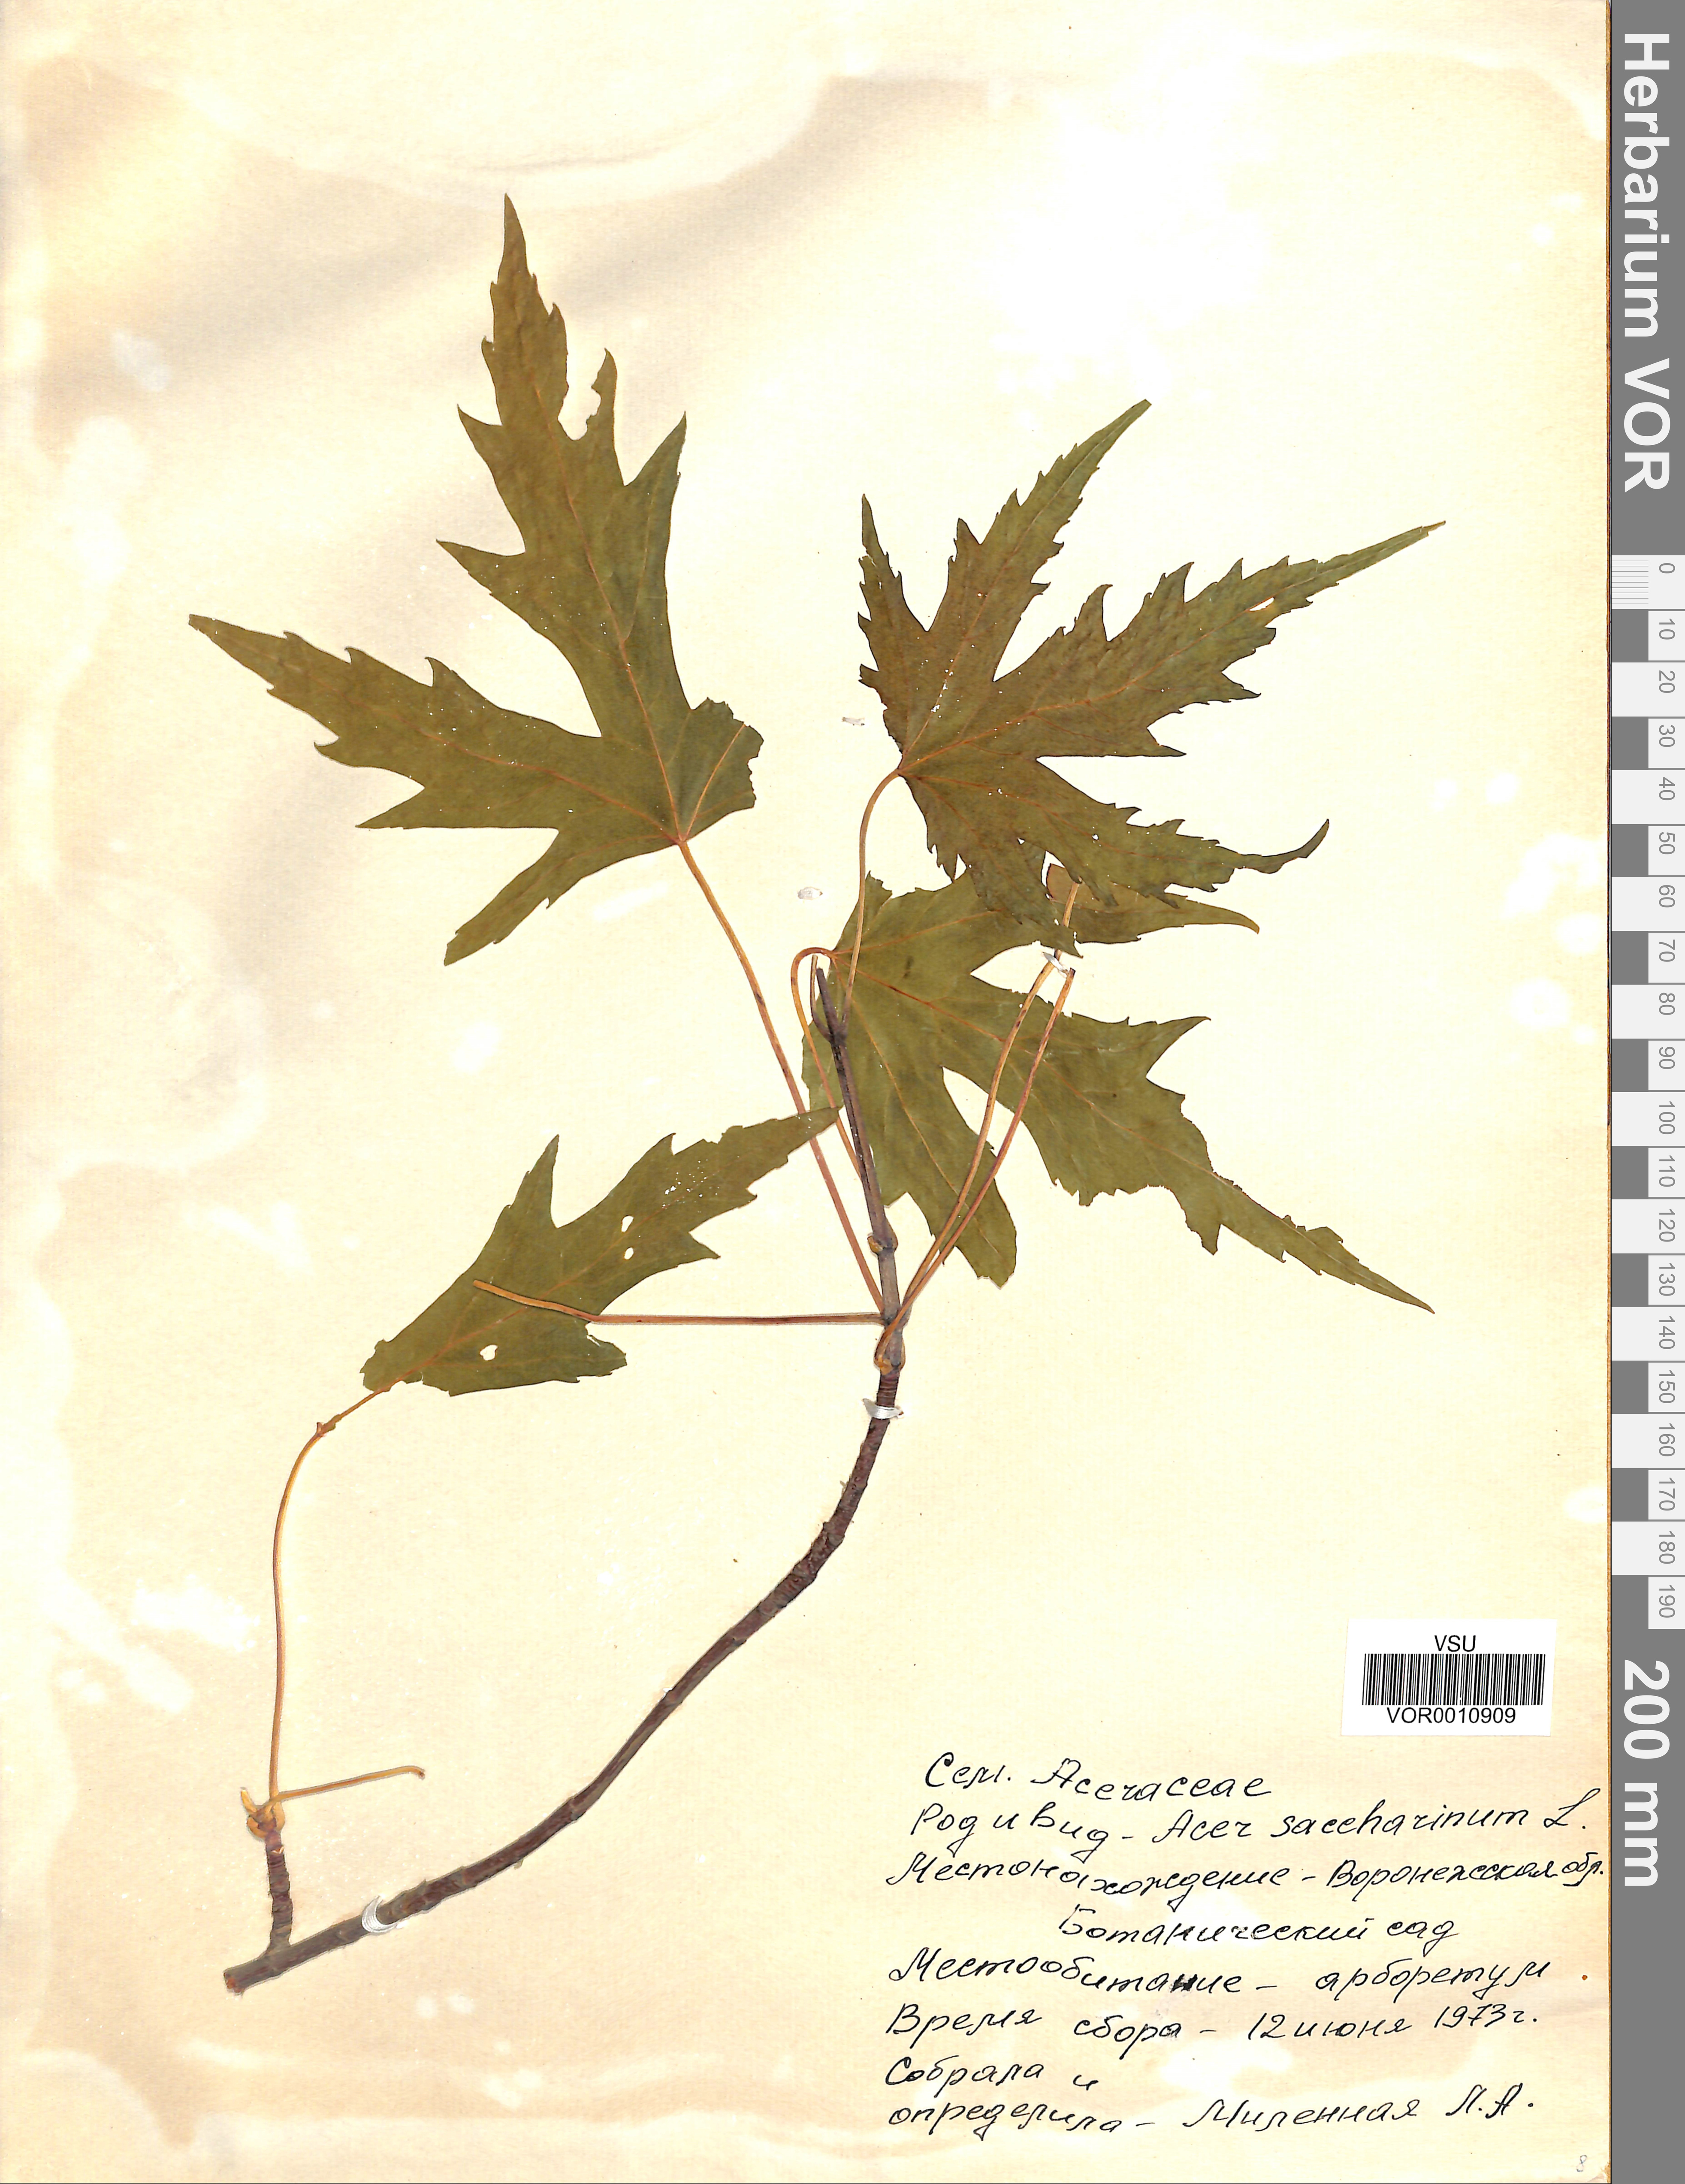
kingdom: Plantae
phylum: Tracheophyta
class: Magnoliopsida
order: Sapindales
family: Sapindaceae
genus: Acer
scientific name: Acer saccharinum
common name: Silver maple
